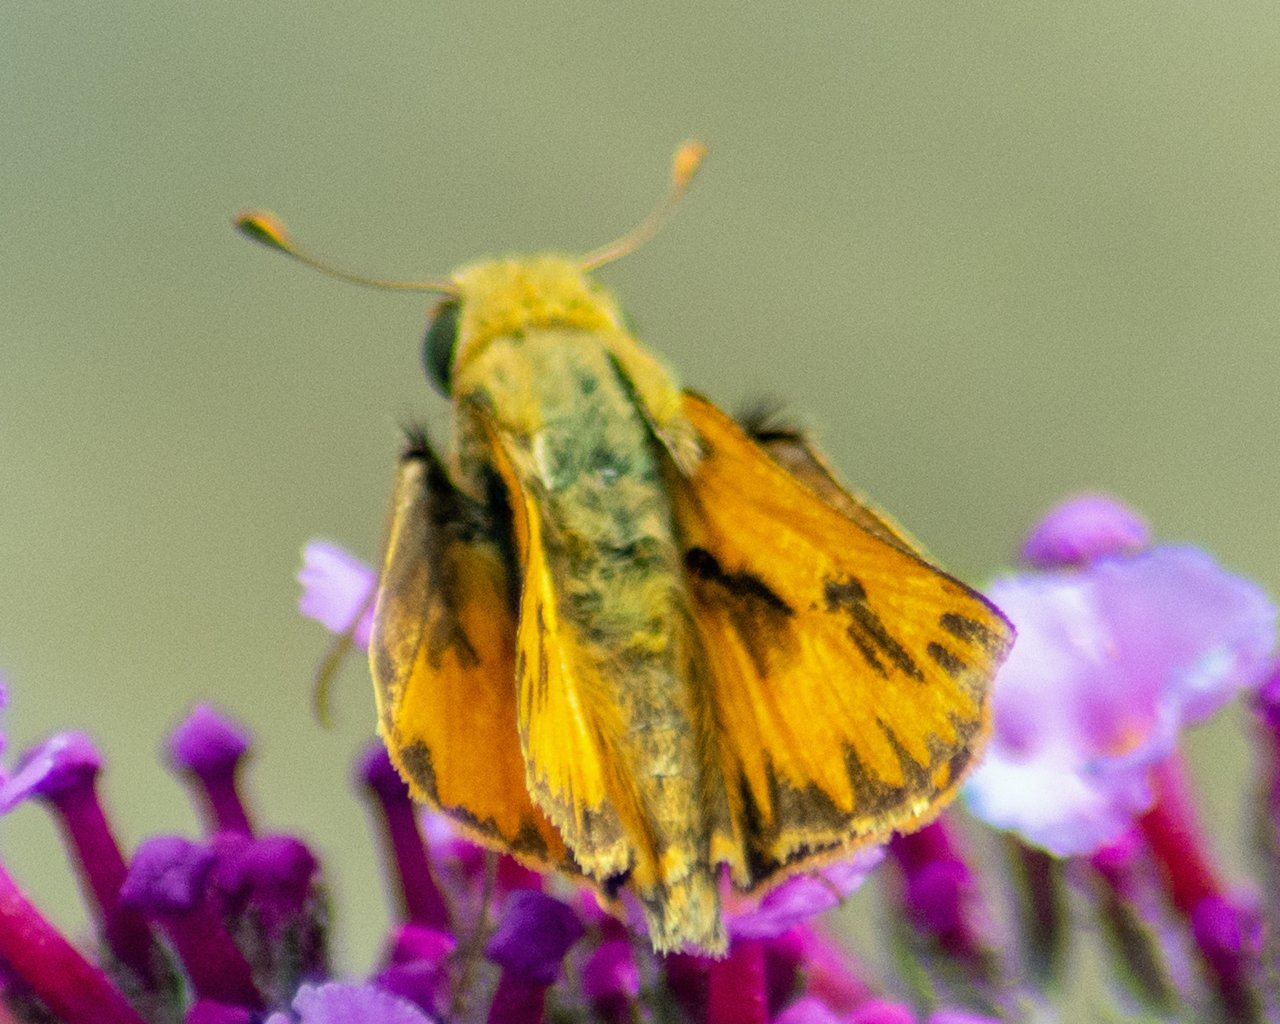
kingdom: Animalia
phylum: Arthropoda
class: Insecta
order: Lepidoptera
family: Hesperiidae
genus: Hylephila
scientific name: Hylephila phyleus
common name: Fiery Skipper
